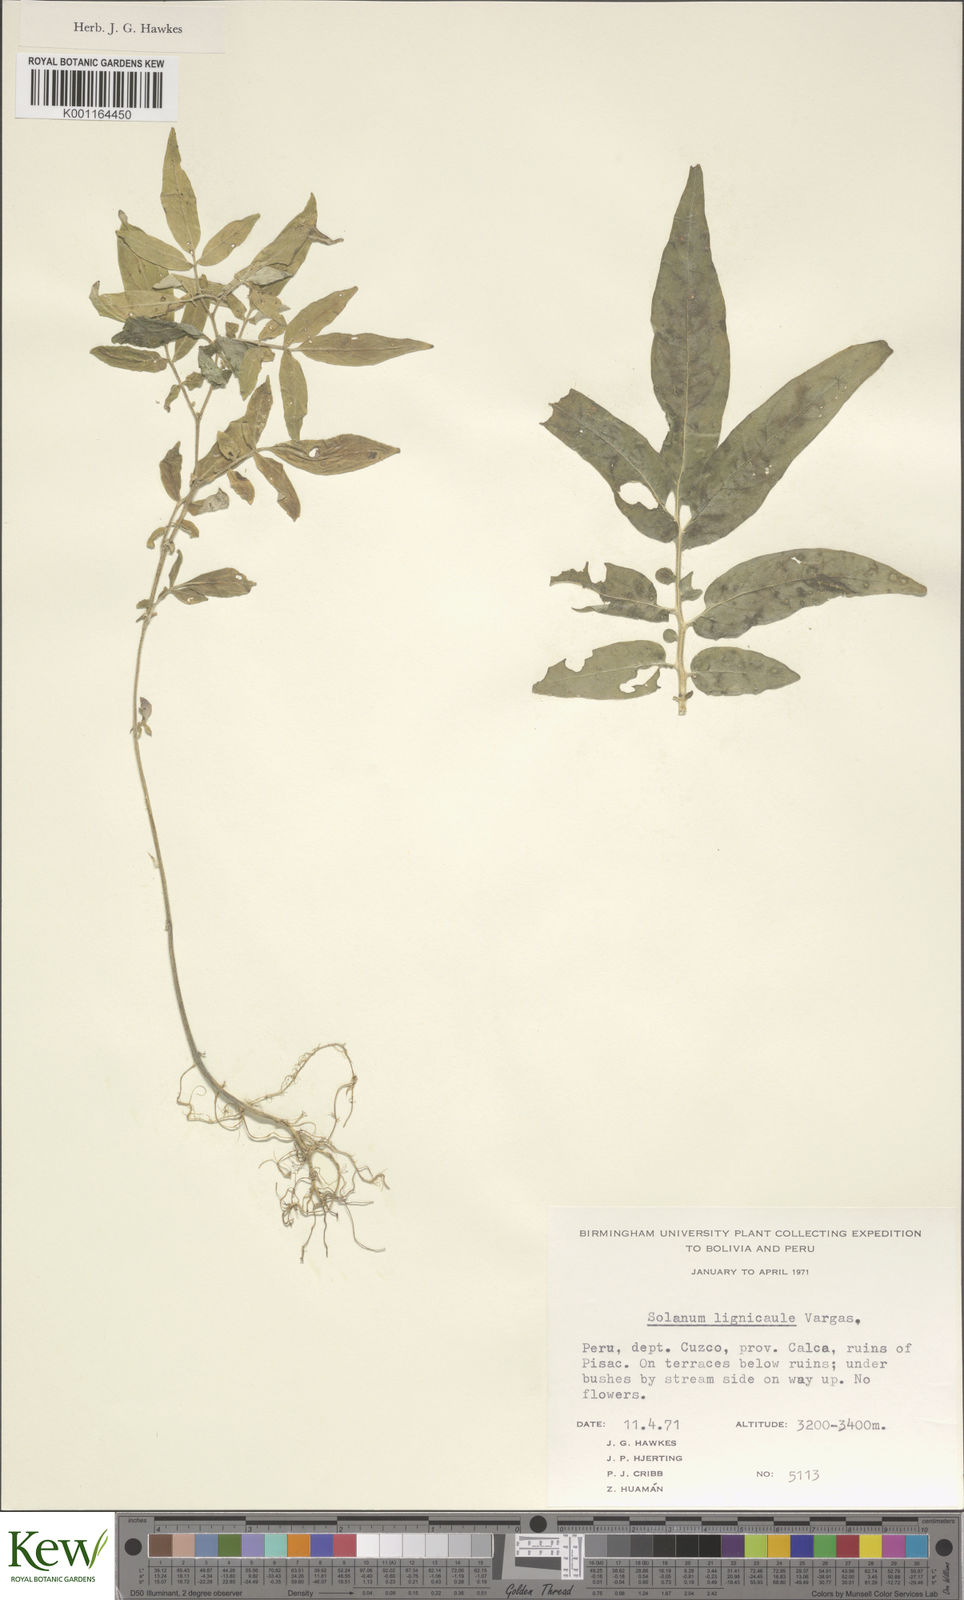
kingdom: Plantae
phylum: Tracheophyta
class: Magnoliopsida
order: Solanales
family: Solanaceae
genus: Solanum
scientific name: Solanum lignicaule
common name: Fox potato
